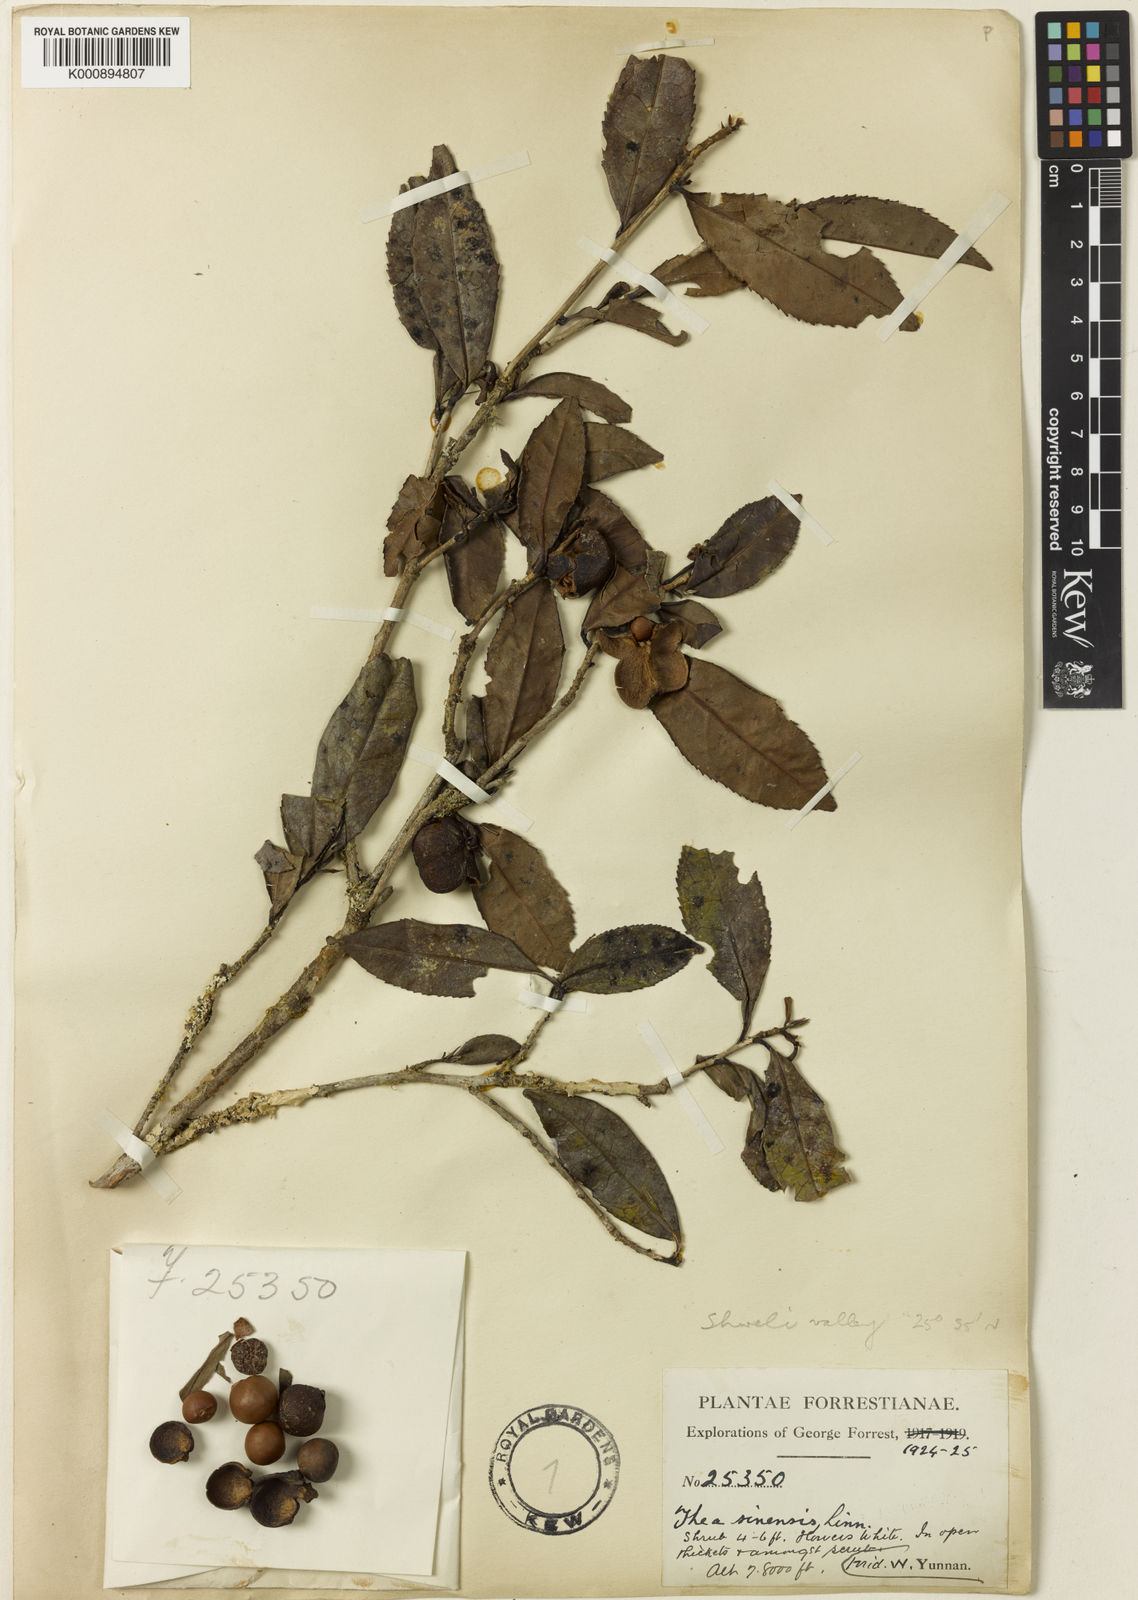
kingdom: Plantae
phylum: Tracheophyta
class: Magnoliopsida
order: Ericales
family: Theaceae
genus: Camellia
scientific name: Camellia sinensis
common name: Tea
